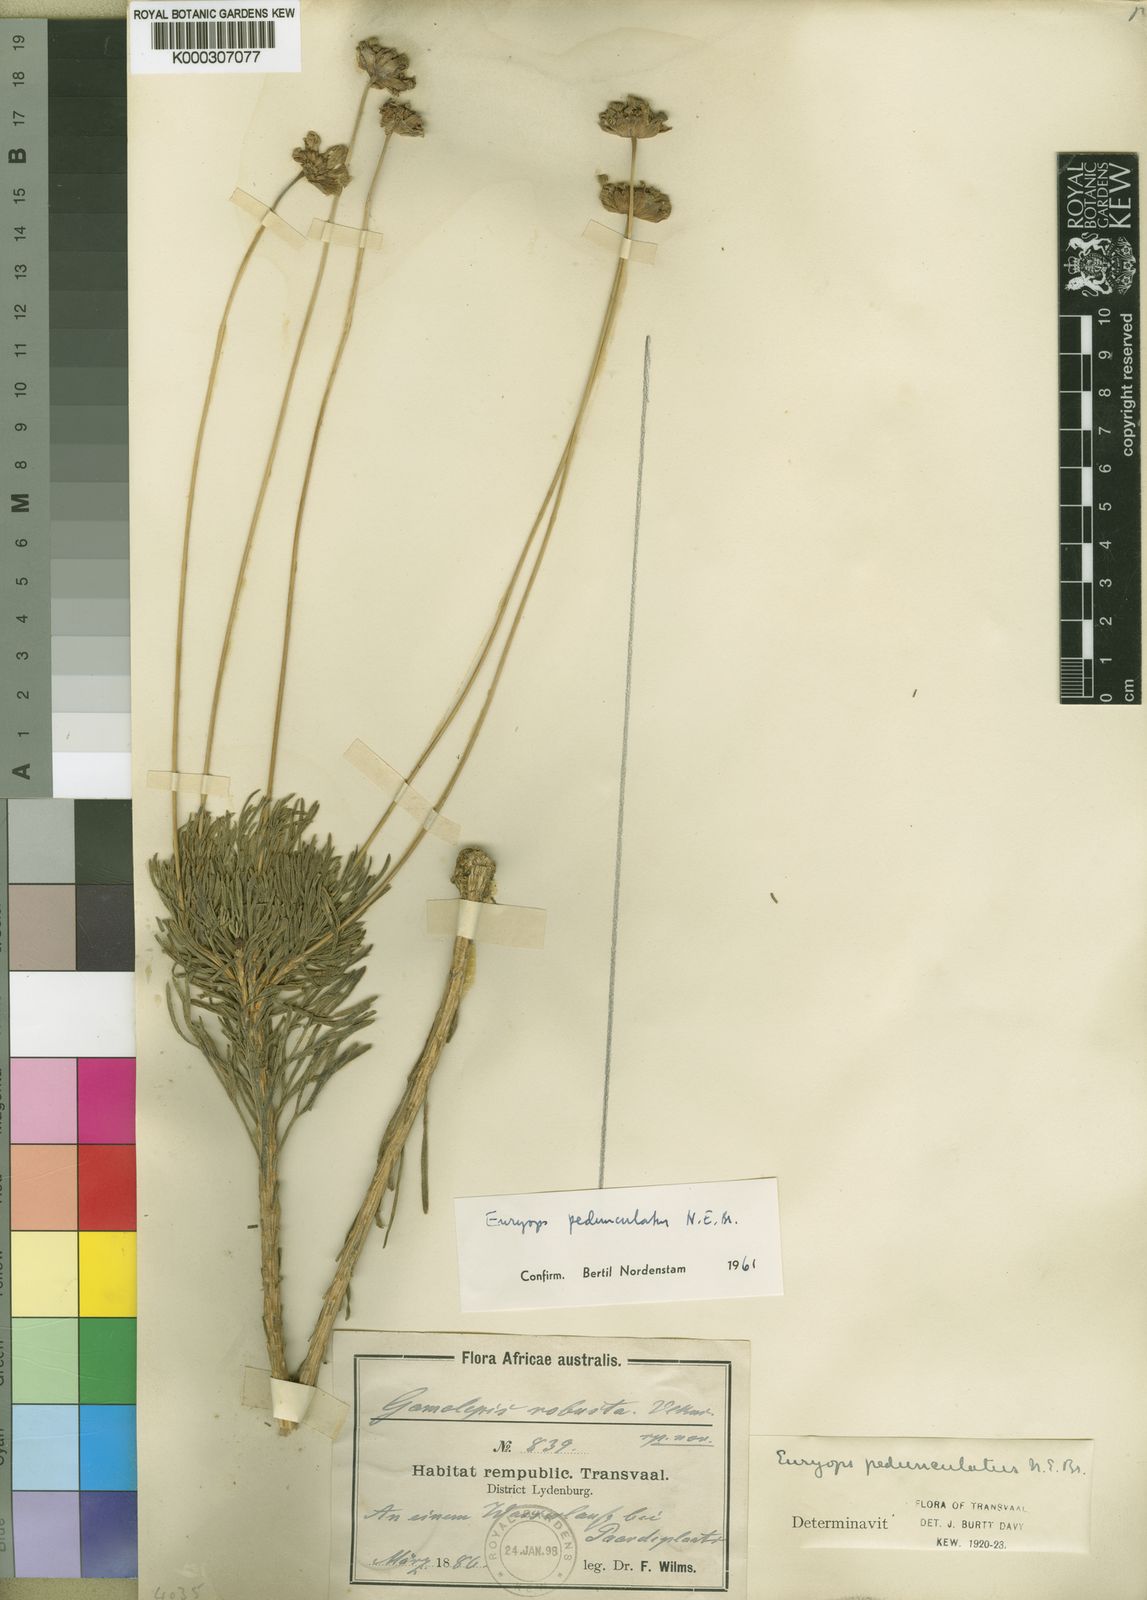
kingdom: Plantae
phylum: Tracheophyta
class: Magnoliopsida
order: Asterales
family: Asteraceae
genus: Euryops
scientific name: Euryops pedunculatus
